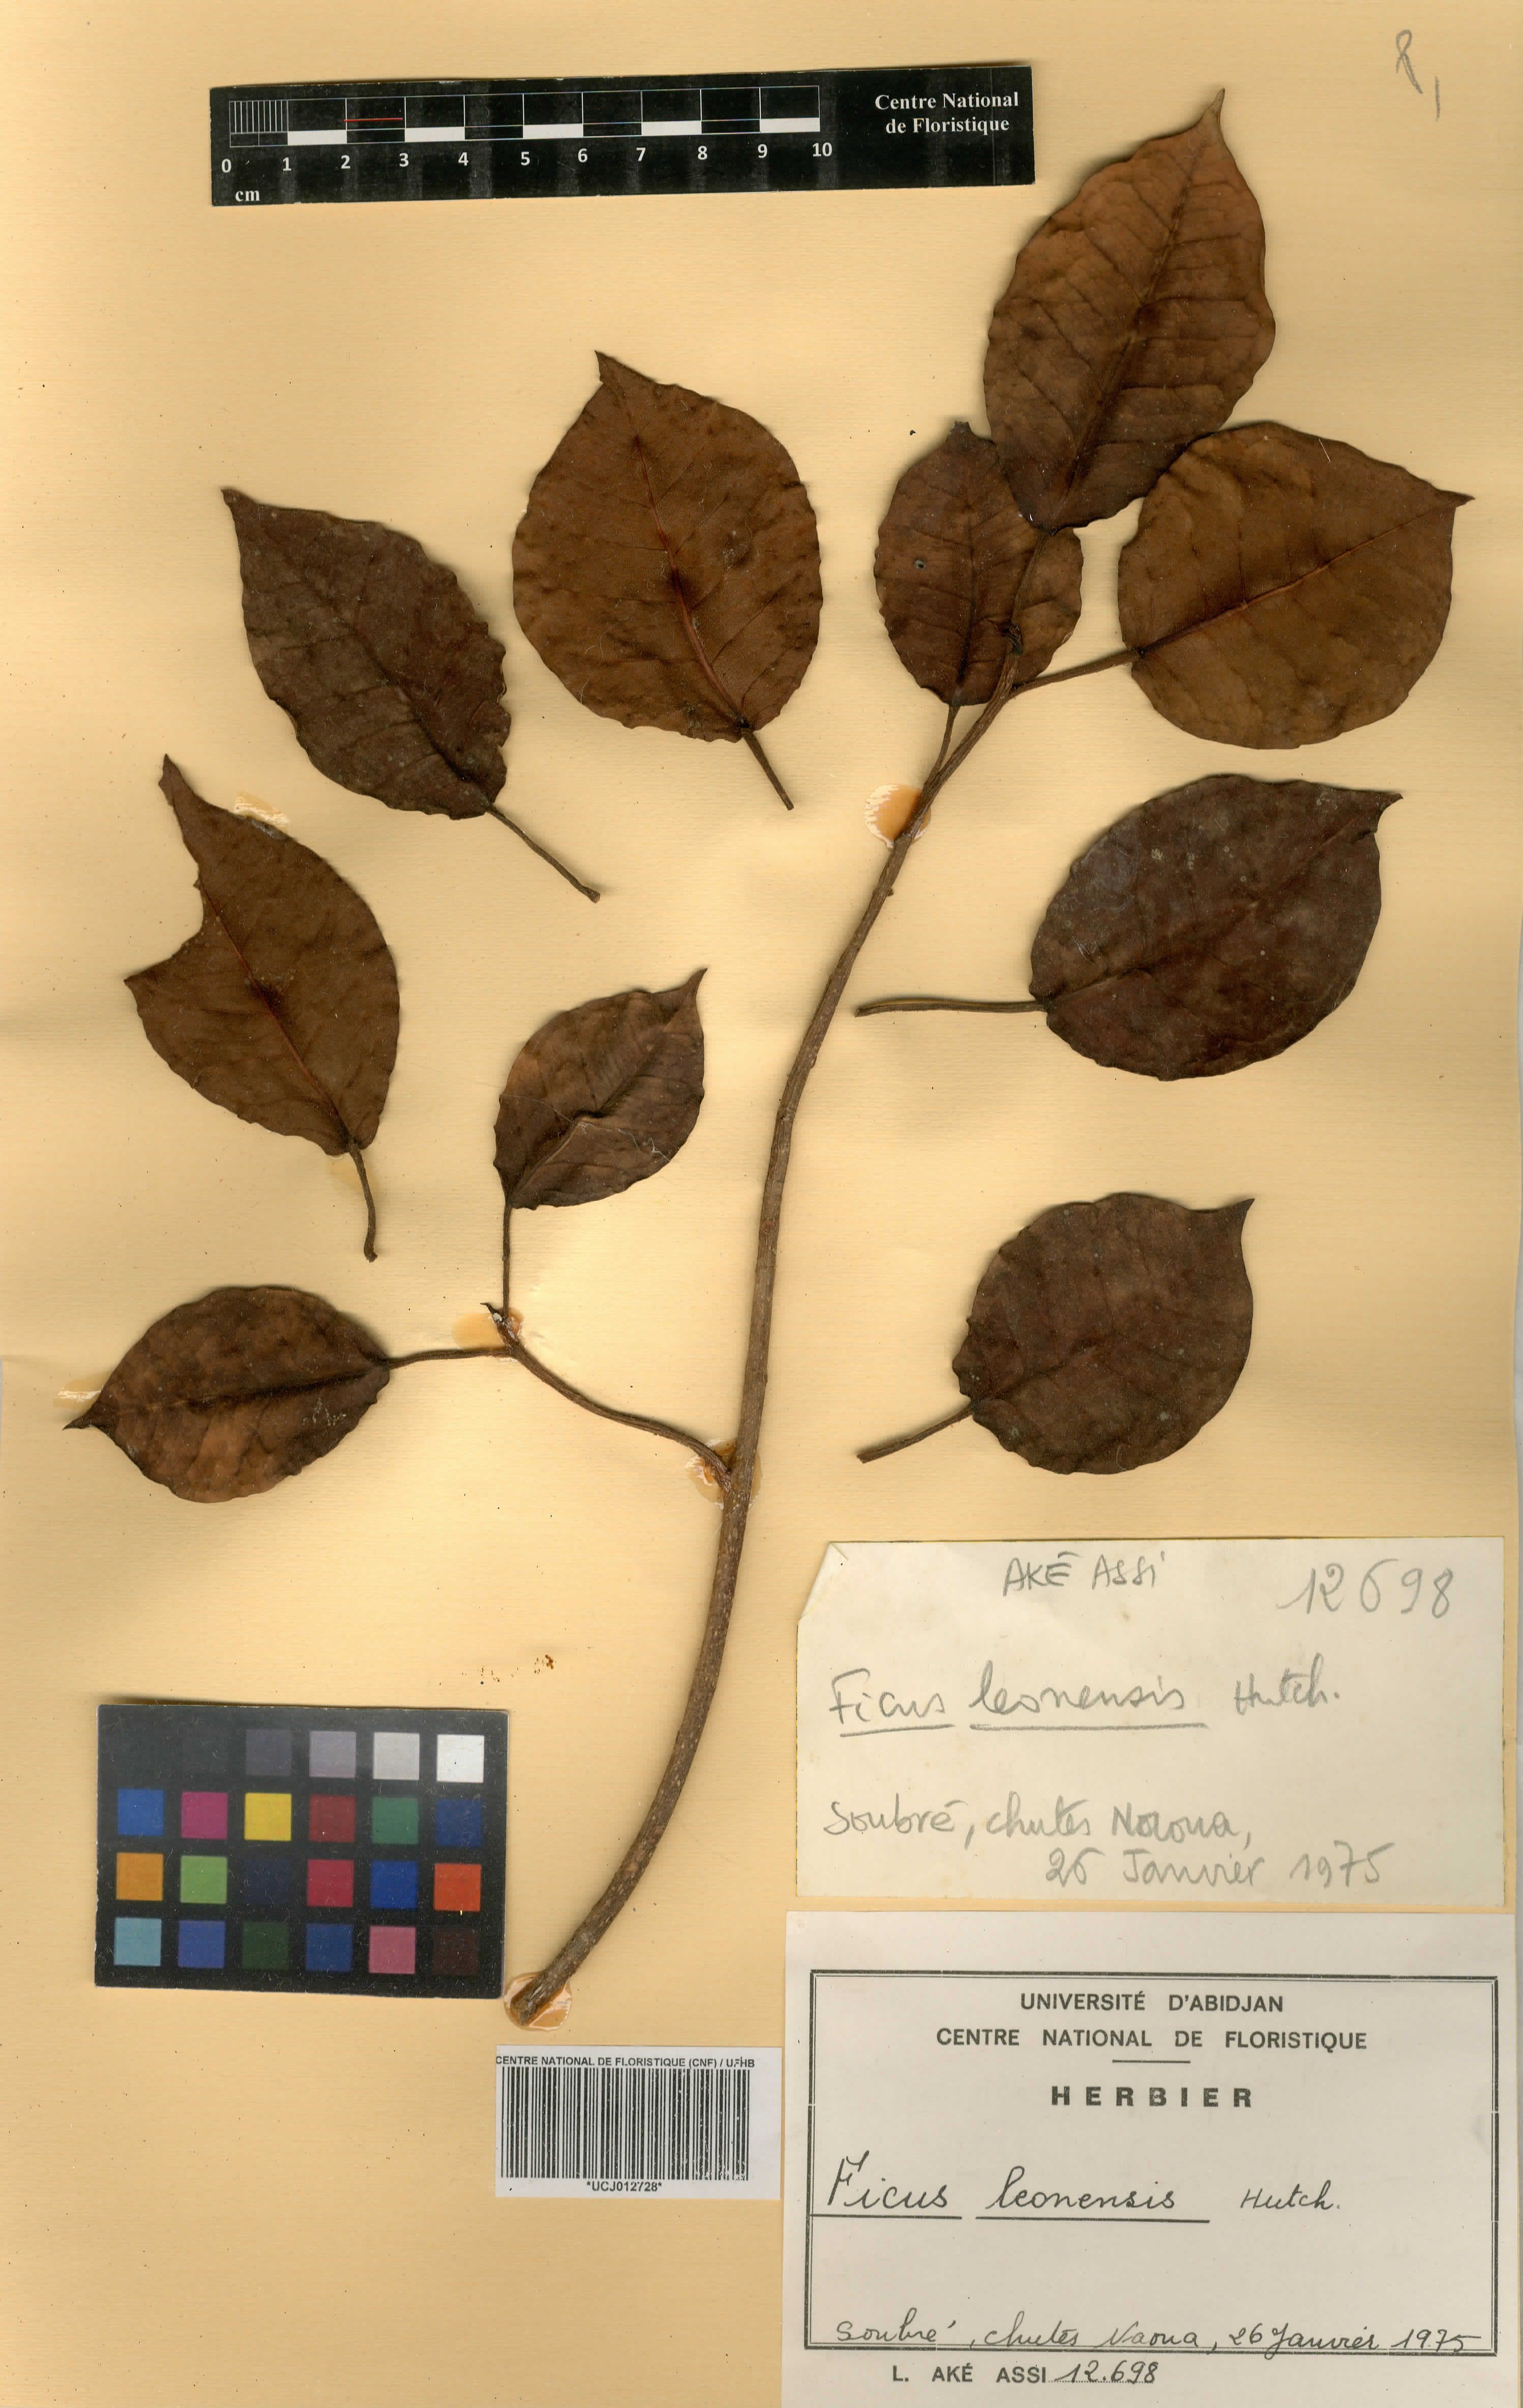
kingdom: Plantae
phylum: Tracheophyta
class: Magnoliopsida
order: Rosales
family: Moraceae
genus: Ficus
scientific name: Ficus leonensis
